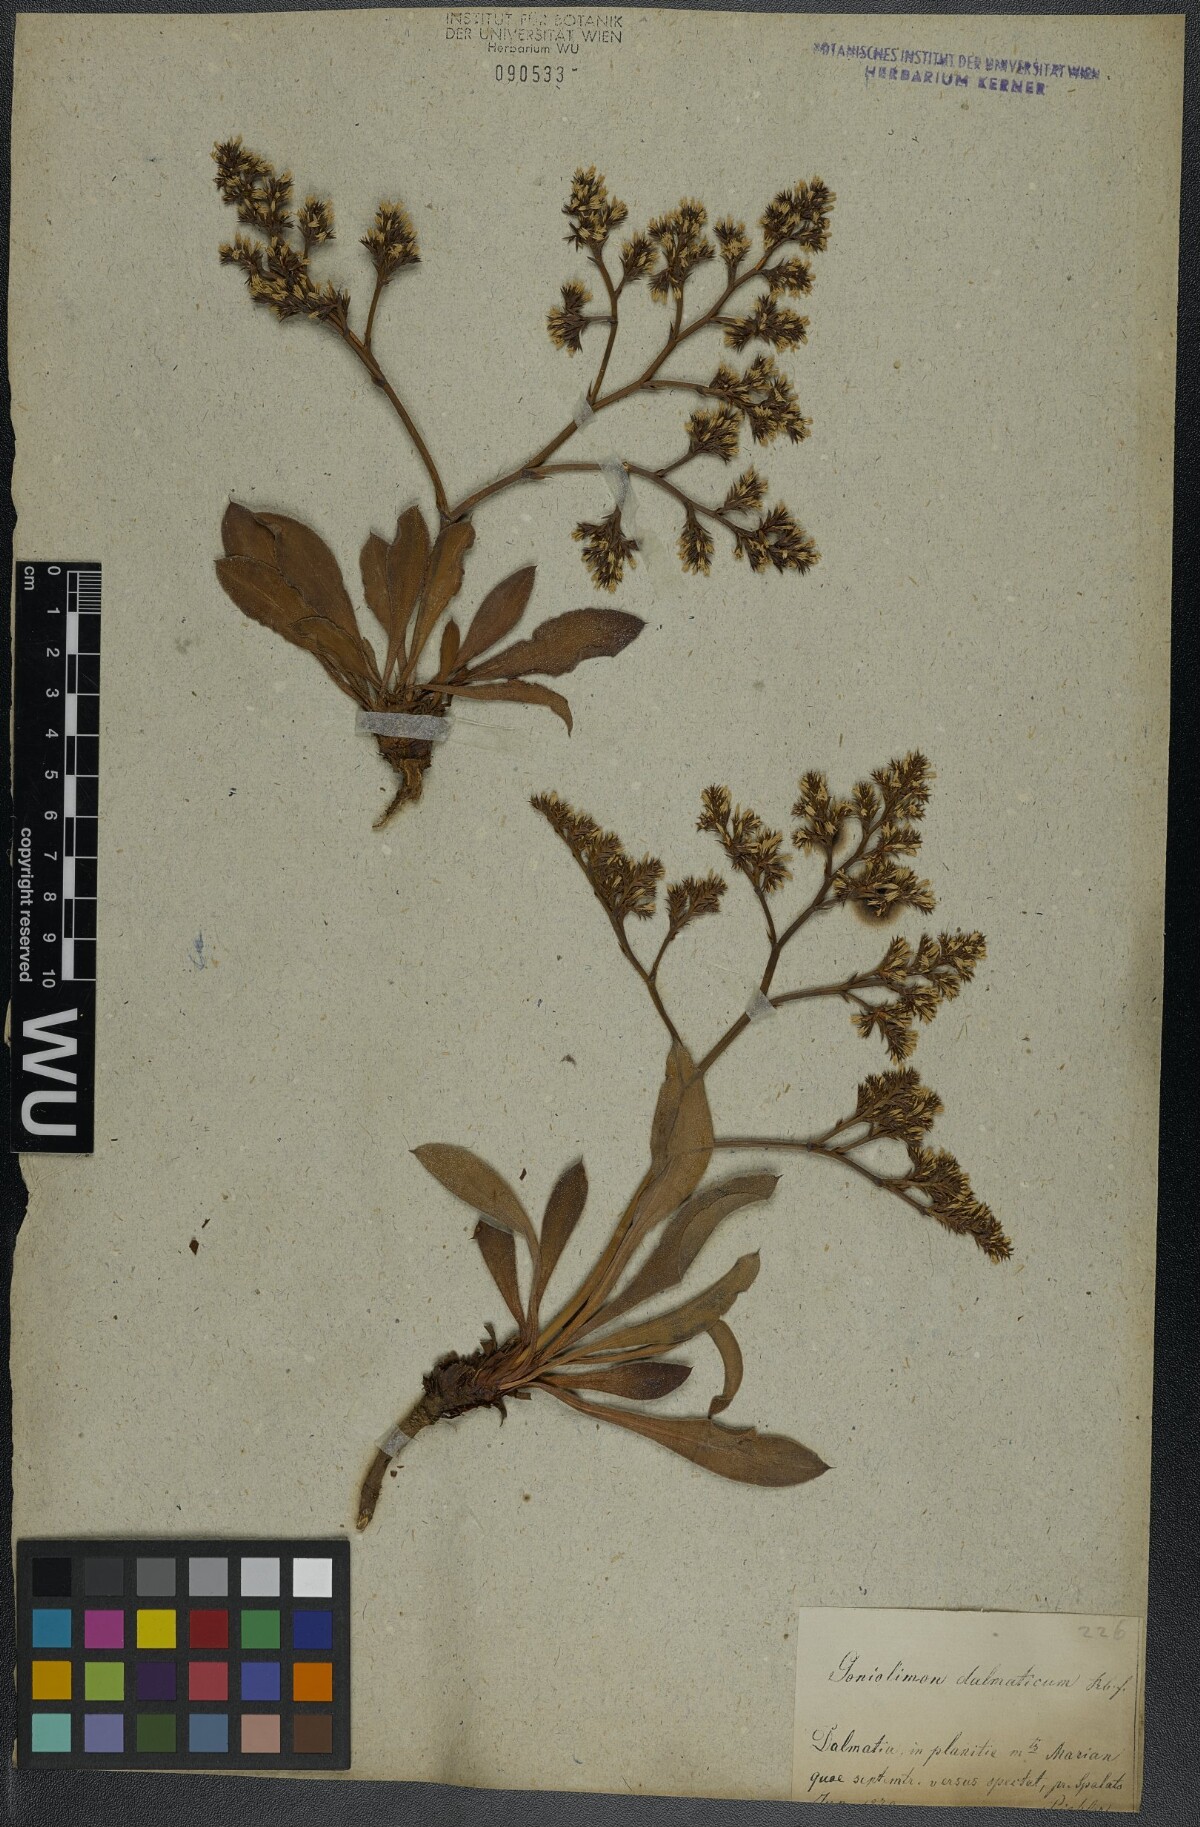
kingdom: Plantae
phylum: Tracheophyta
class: Magnoliopsida
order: Caryophyllales
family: Plumbaginaceae
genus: Goniolimon
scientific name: Goniolimon dalmaticum
